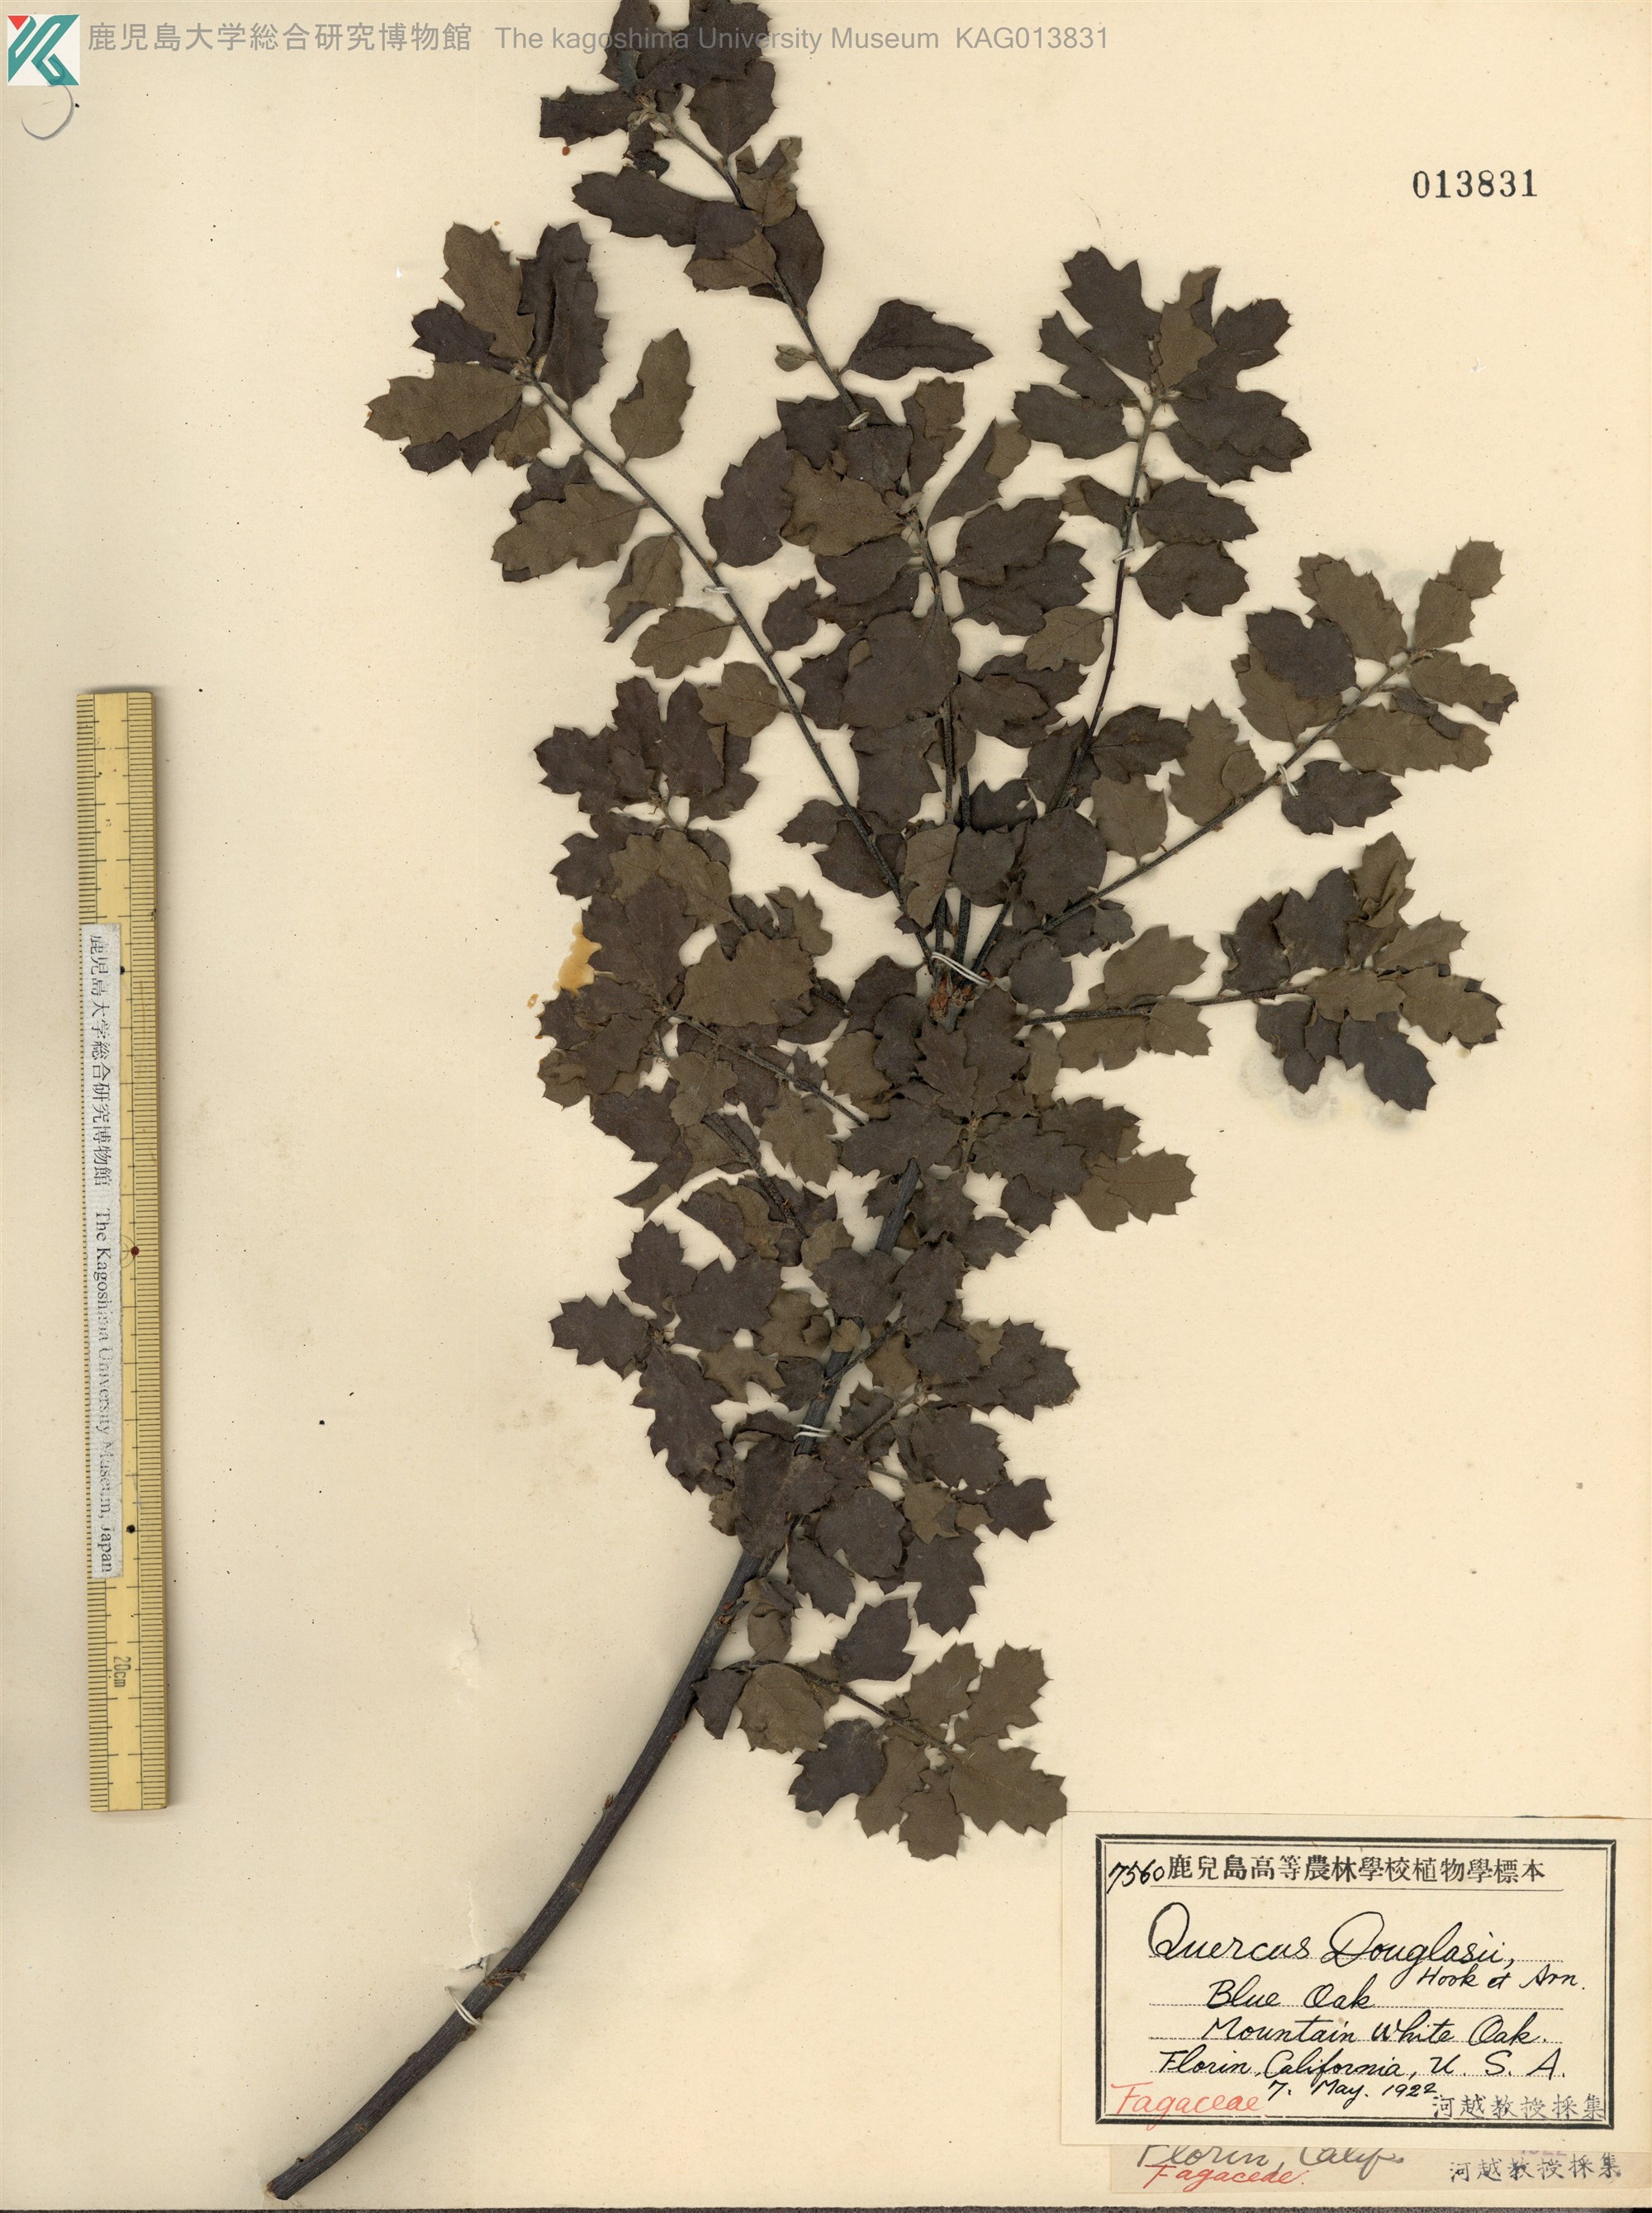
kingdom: Plantae
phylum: Tracheophyta
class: Magnoliopsida
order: Fagales
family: Fagaceae
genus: Quercus
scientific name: Quercus douglasii
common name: Blue oak
